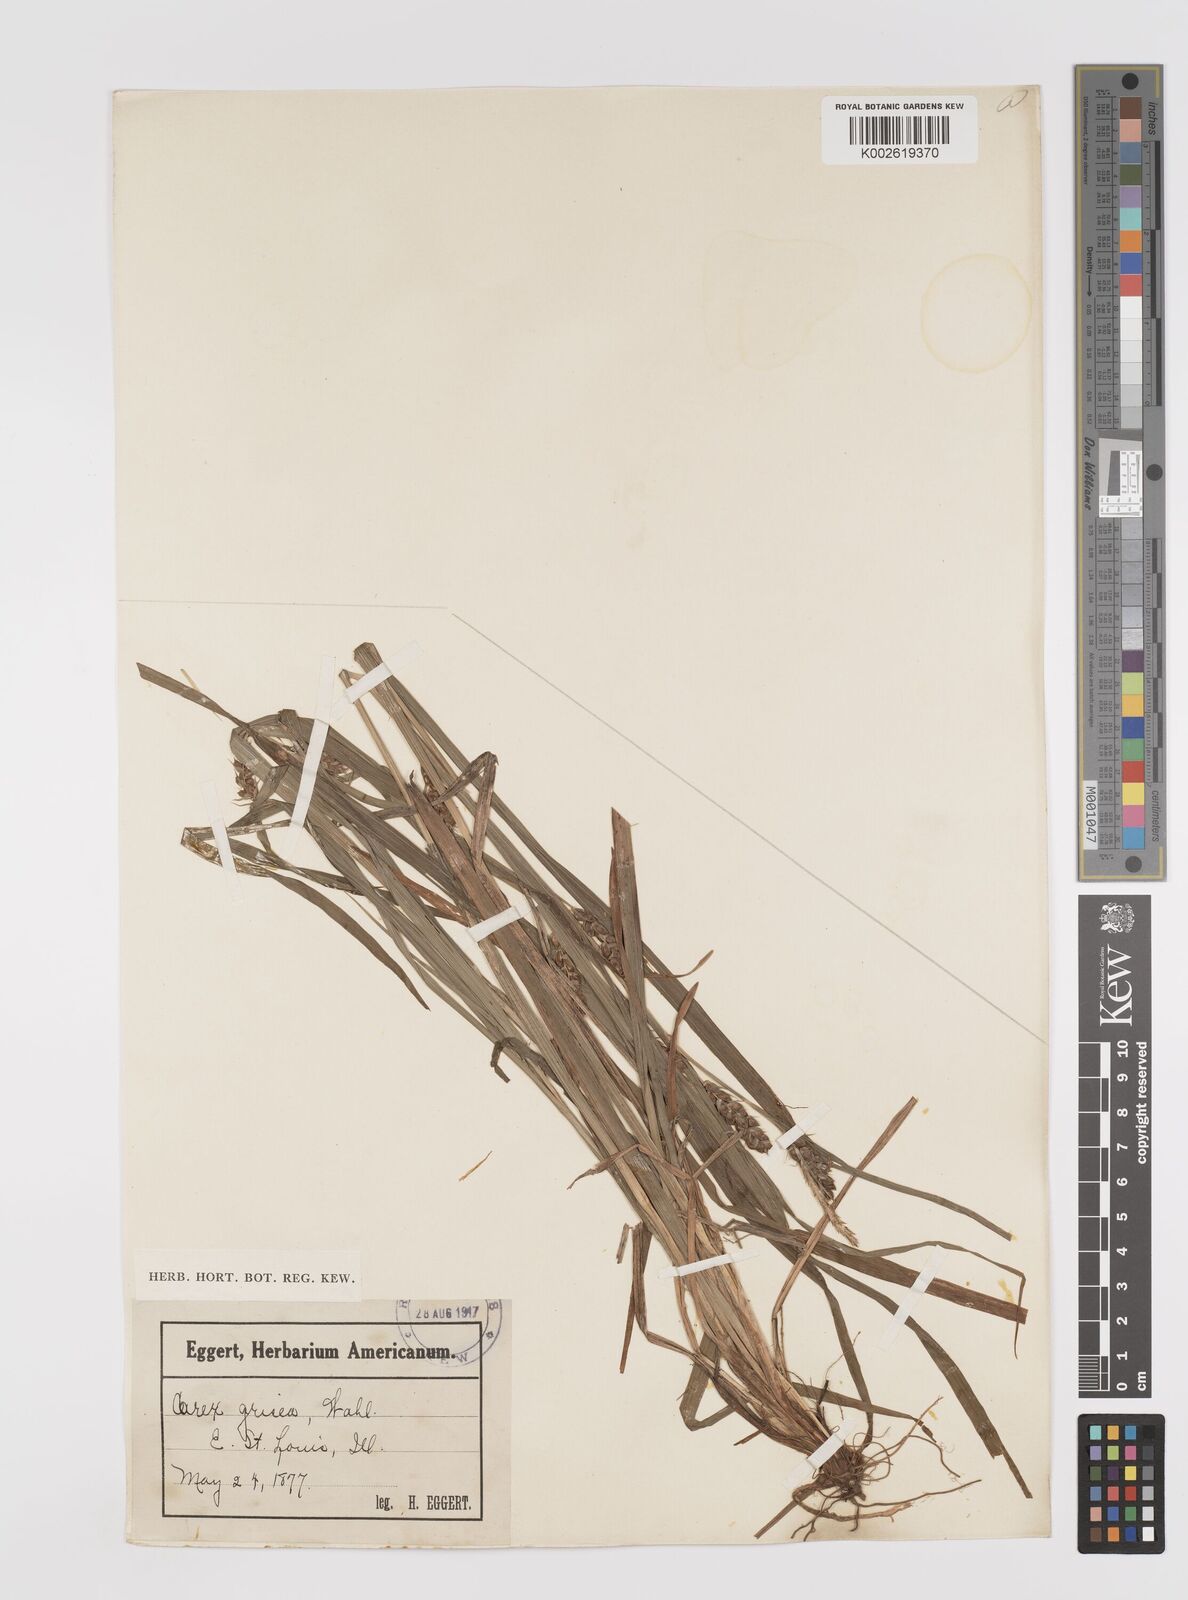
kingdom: Plantae
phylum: Tracheophyta
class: Liliopsida
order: Poales
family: Cyperaceae
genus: Carex
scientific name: Carex grisea
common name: Eastern narrow-leaved sedge
